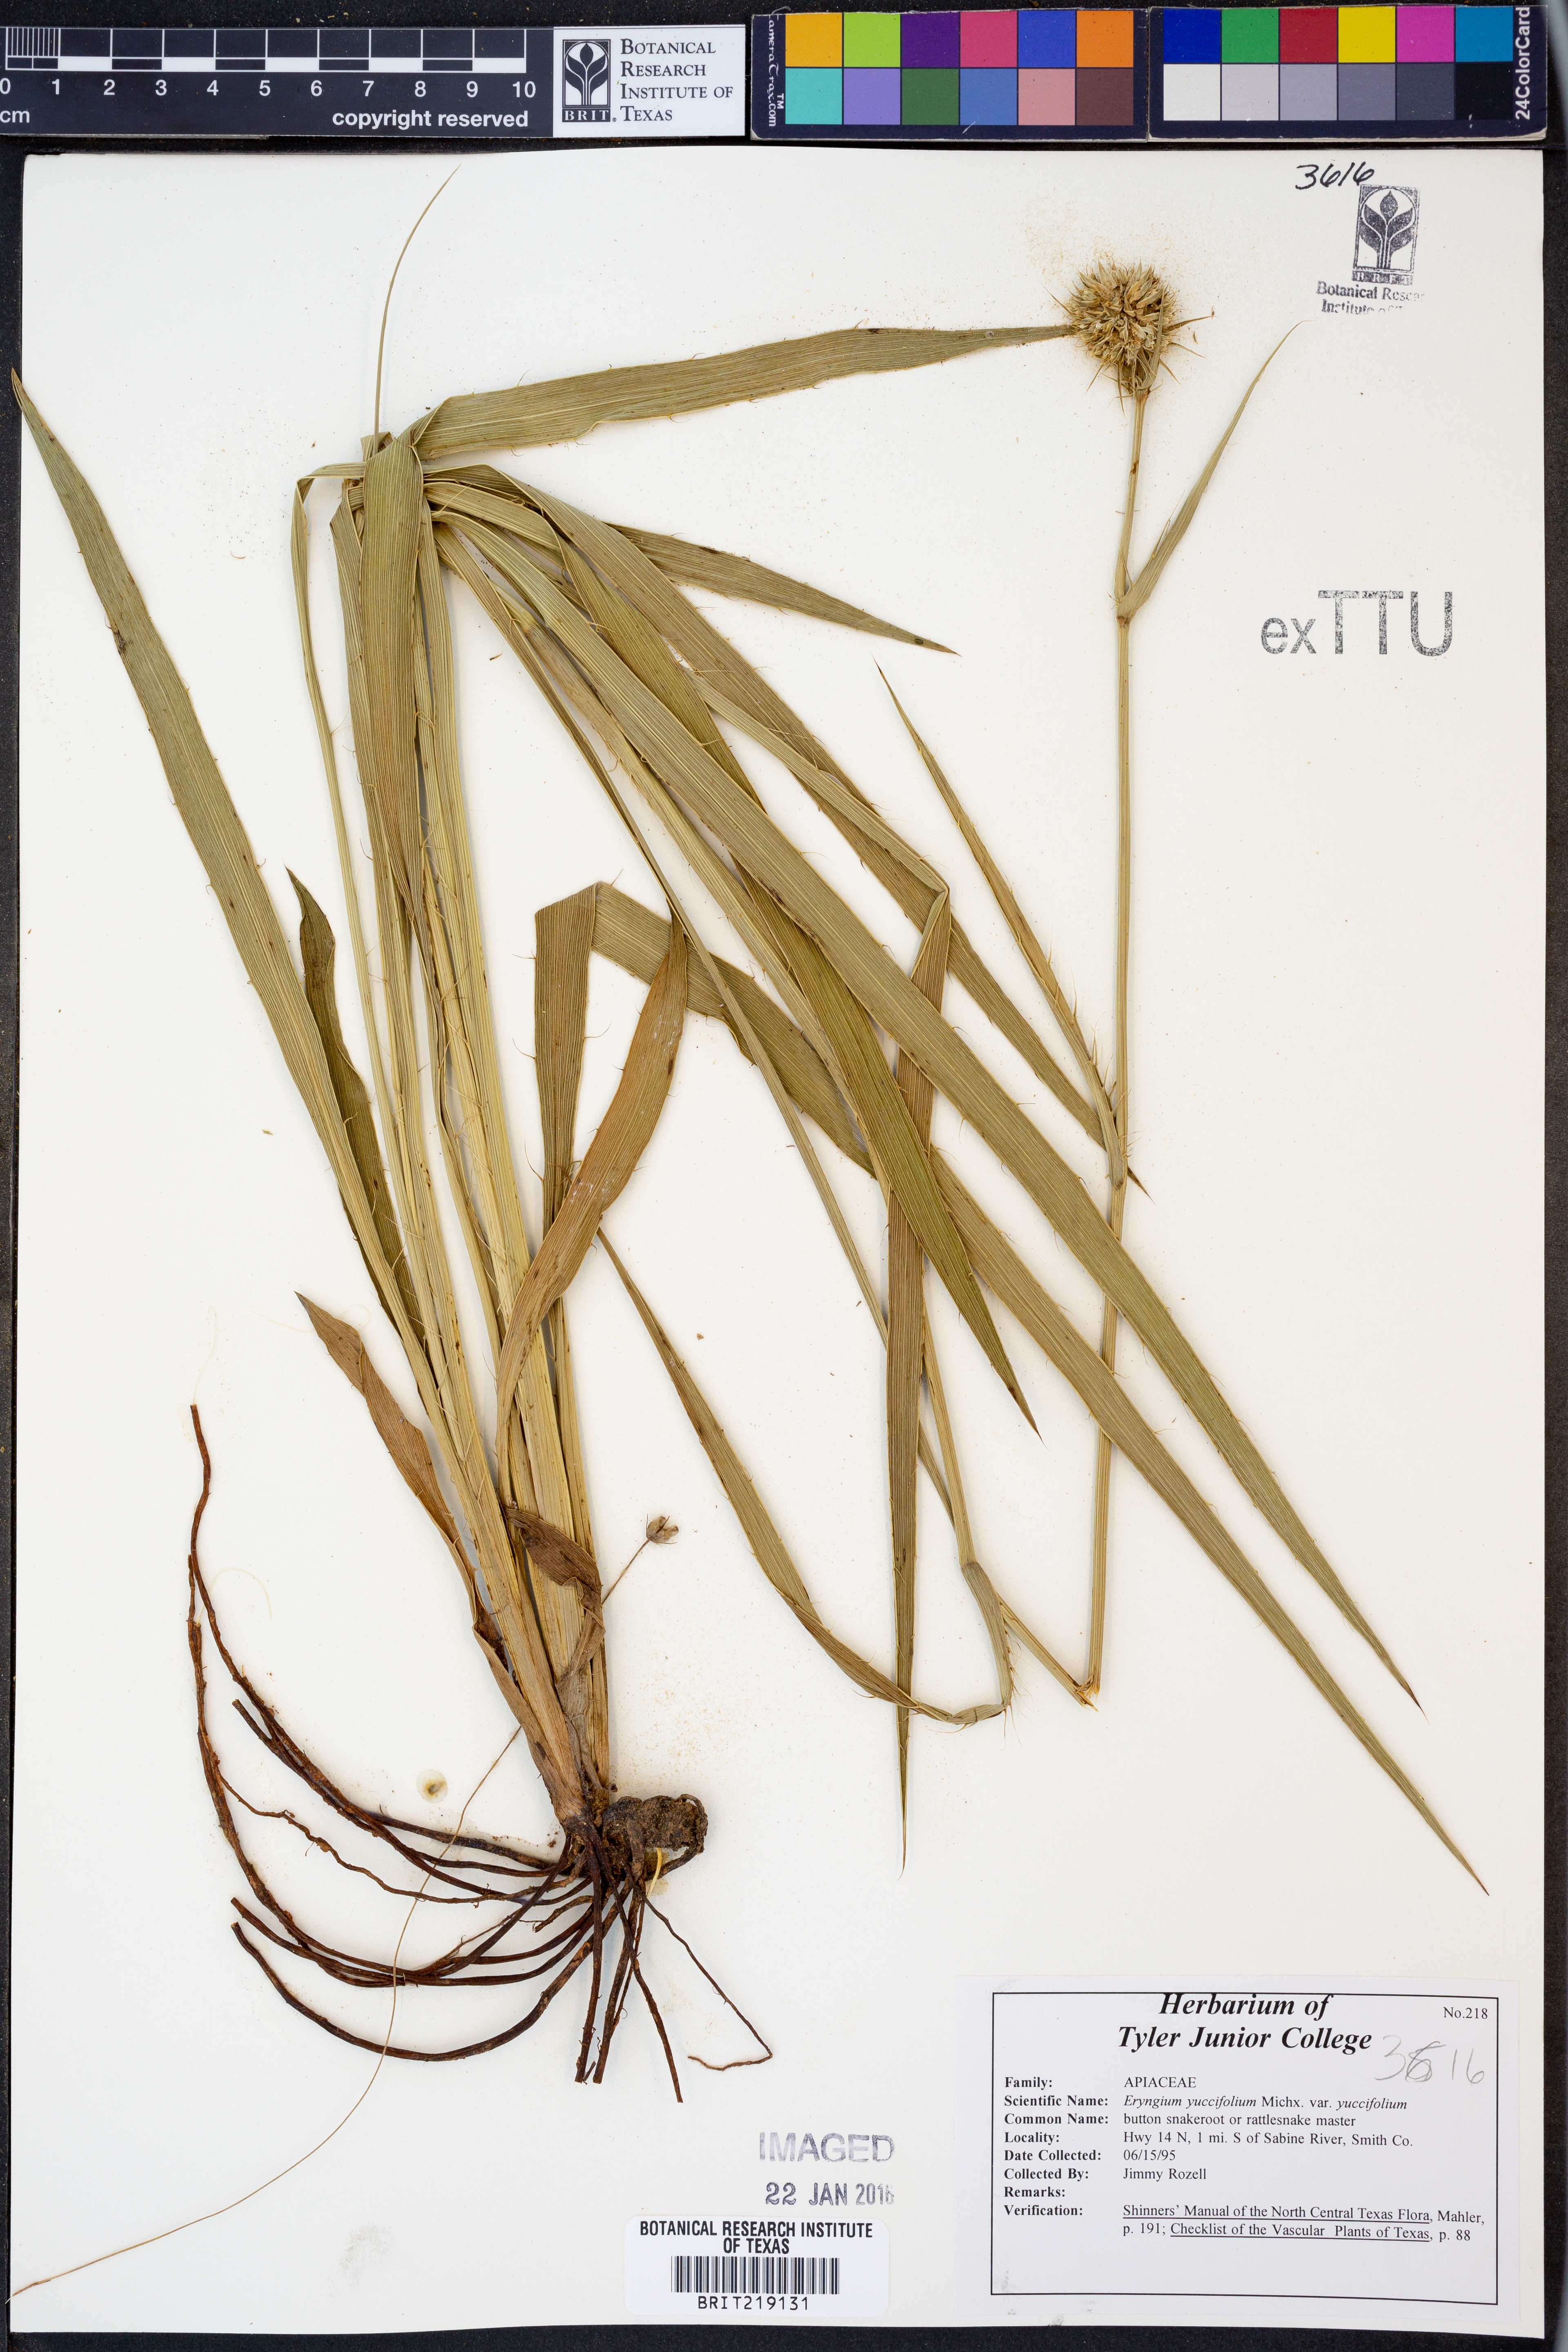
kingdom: Plantae
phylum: Tracheophyta
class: Magnoliopsida
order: Apiales
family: Apiaceae
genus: Eryngium
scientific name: Eryngium yuccifolium
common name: Button eryngo
